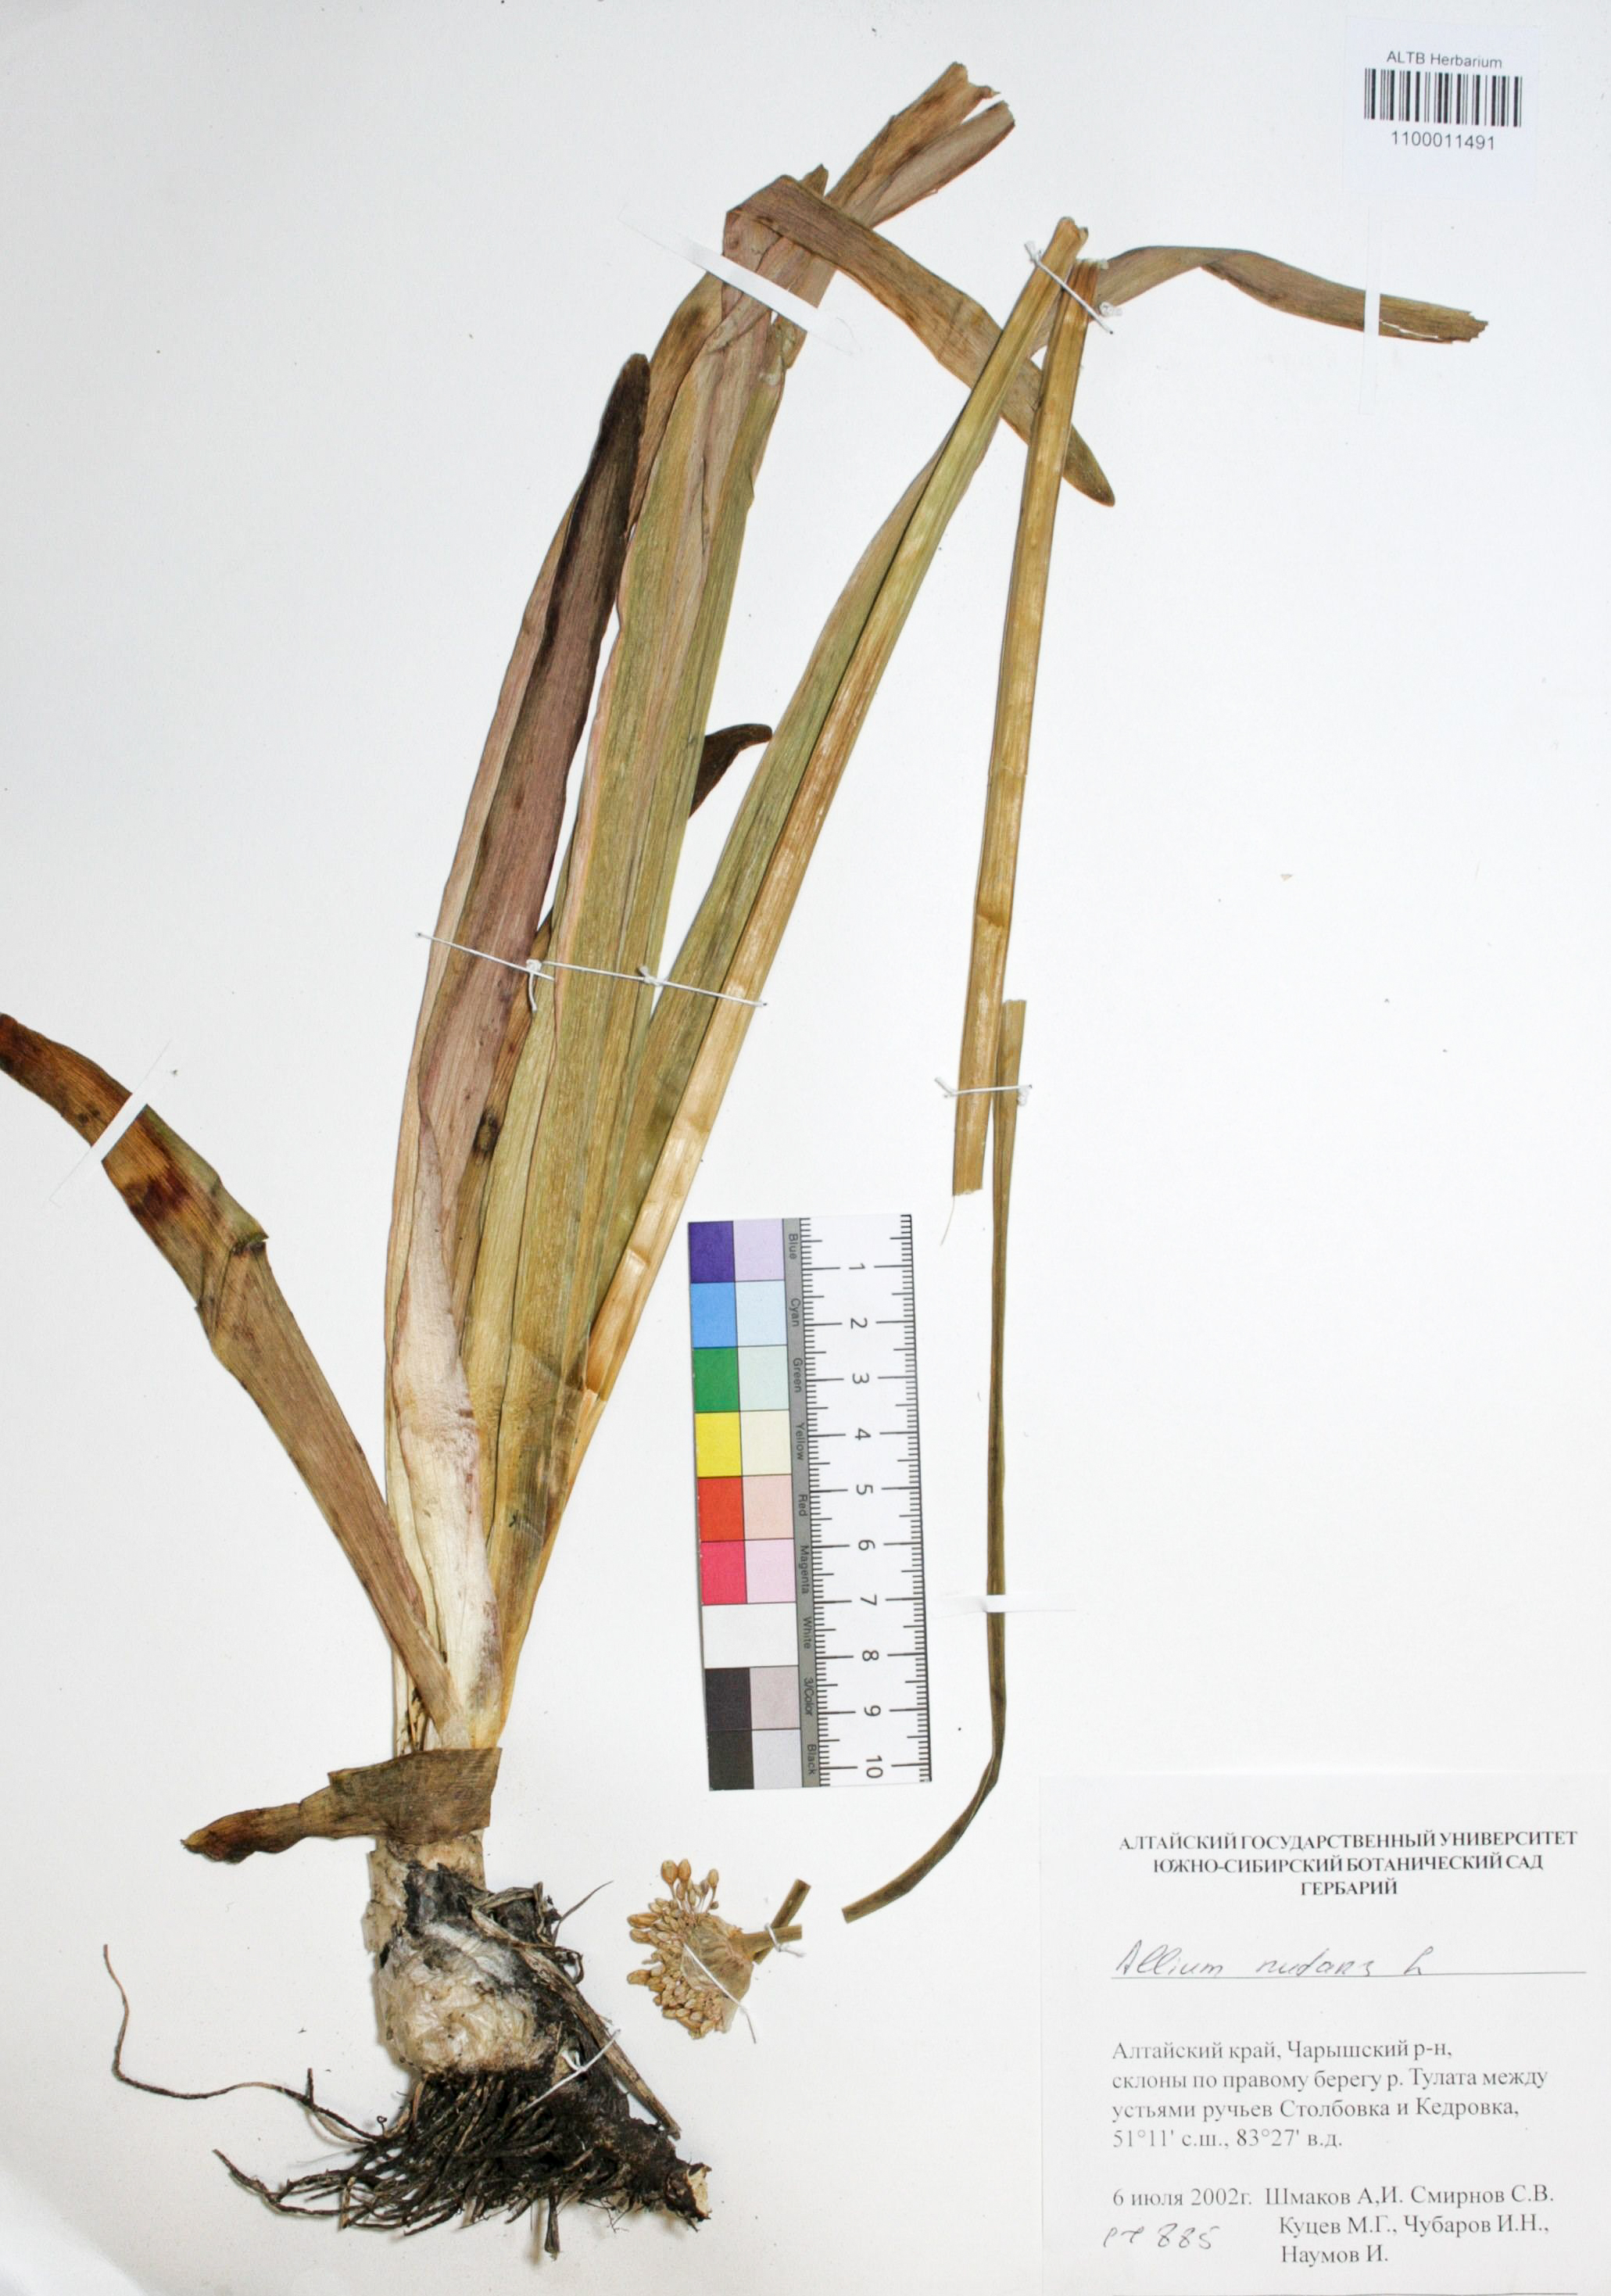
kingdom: Plantae
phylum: Tracheophyta
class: Liliopsida
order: Asparagales
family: Amaryllidaceae
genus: Allium
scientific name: Allium nutans
